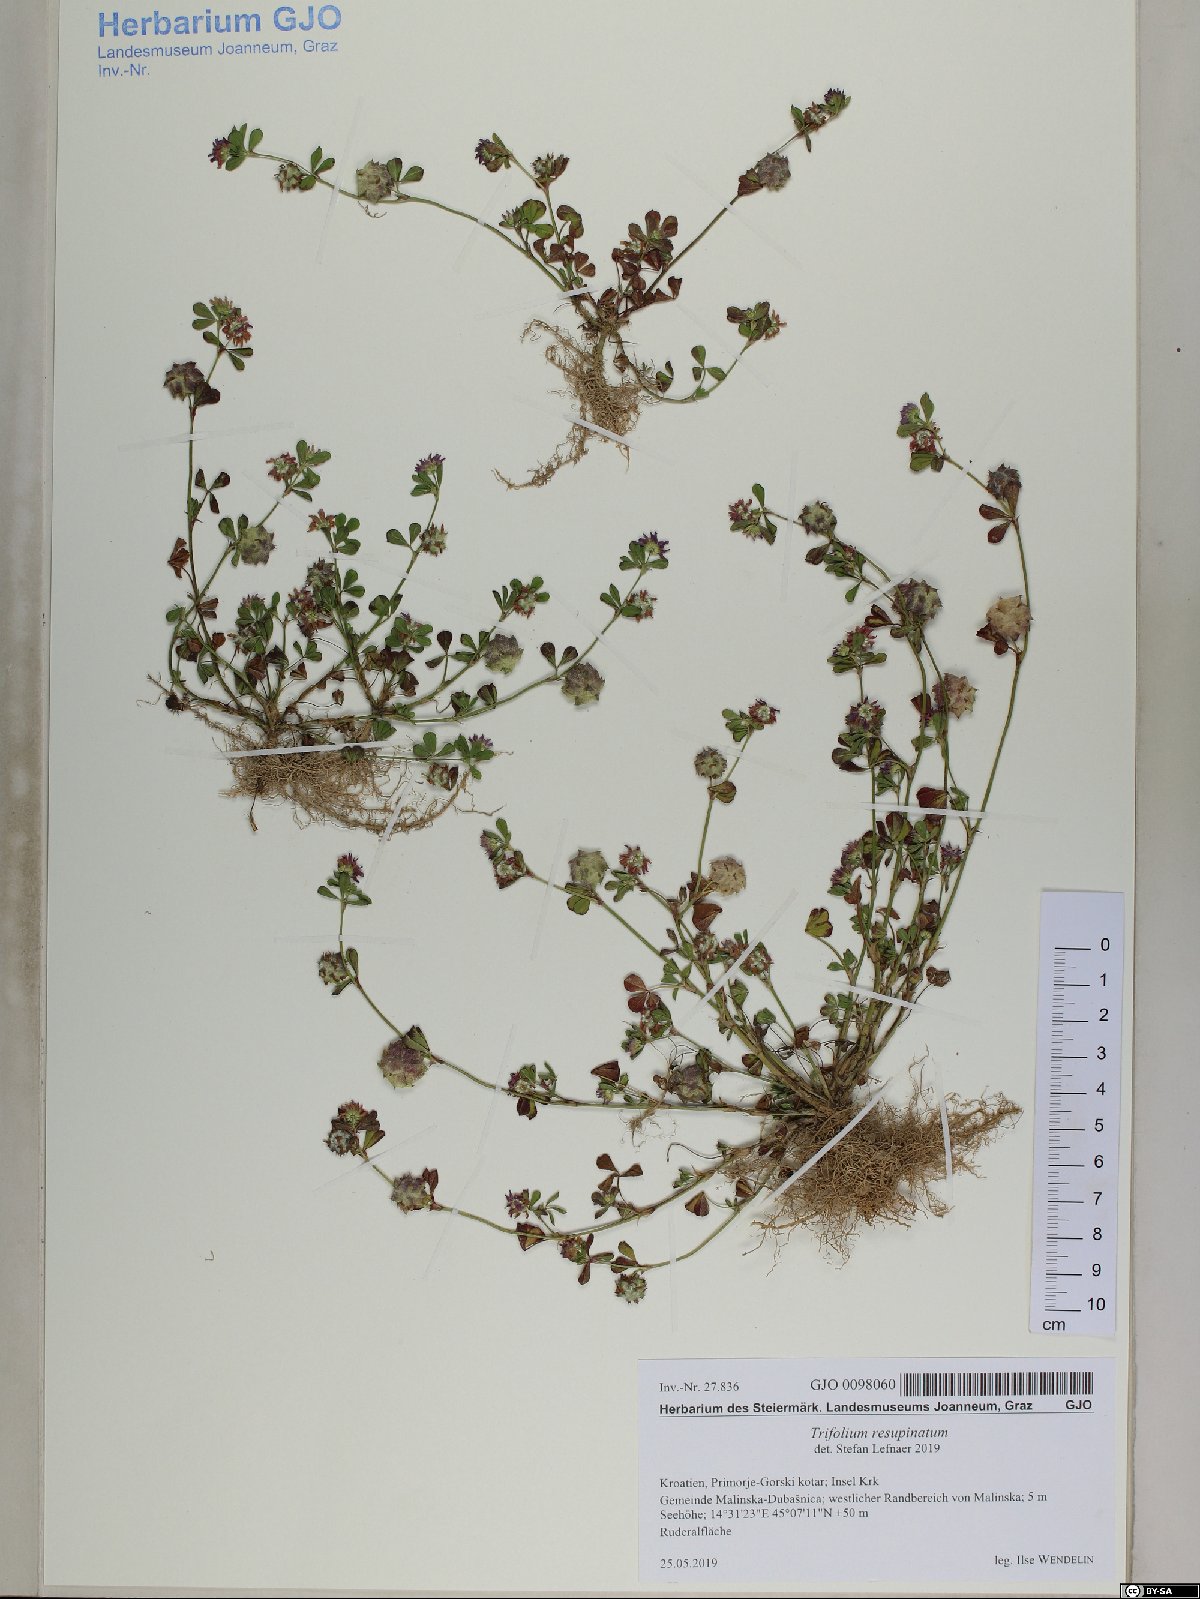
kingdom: Plantae
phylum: Tracheophyta
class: Magnoliopsida
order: Fabales
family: Fabaceae
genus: Trifolium
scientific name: Trifolium resupinatum
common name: Reversed clover
